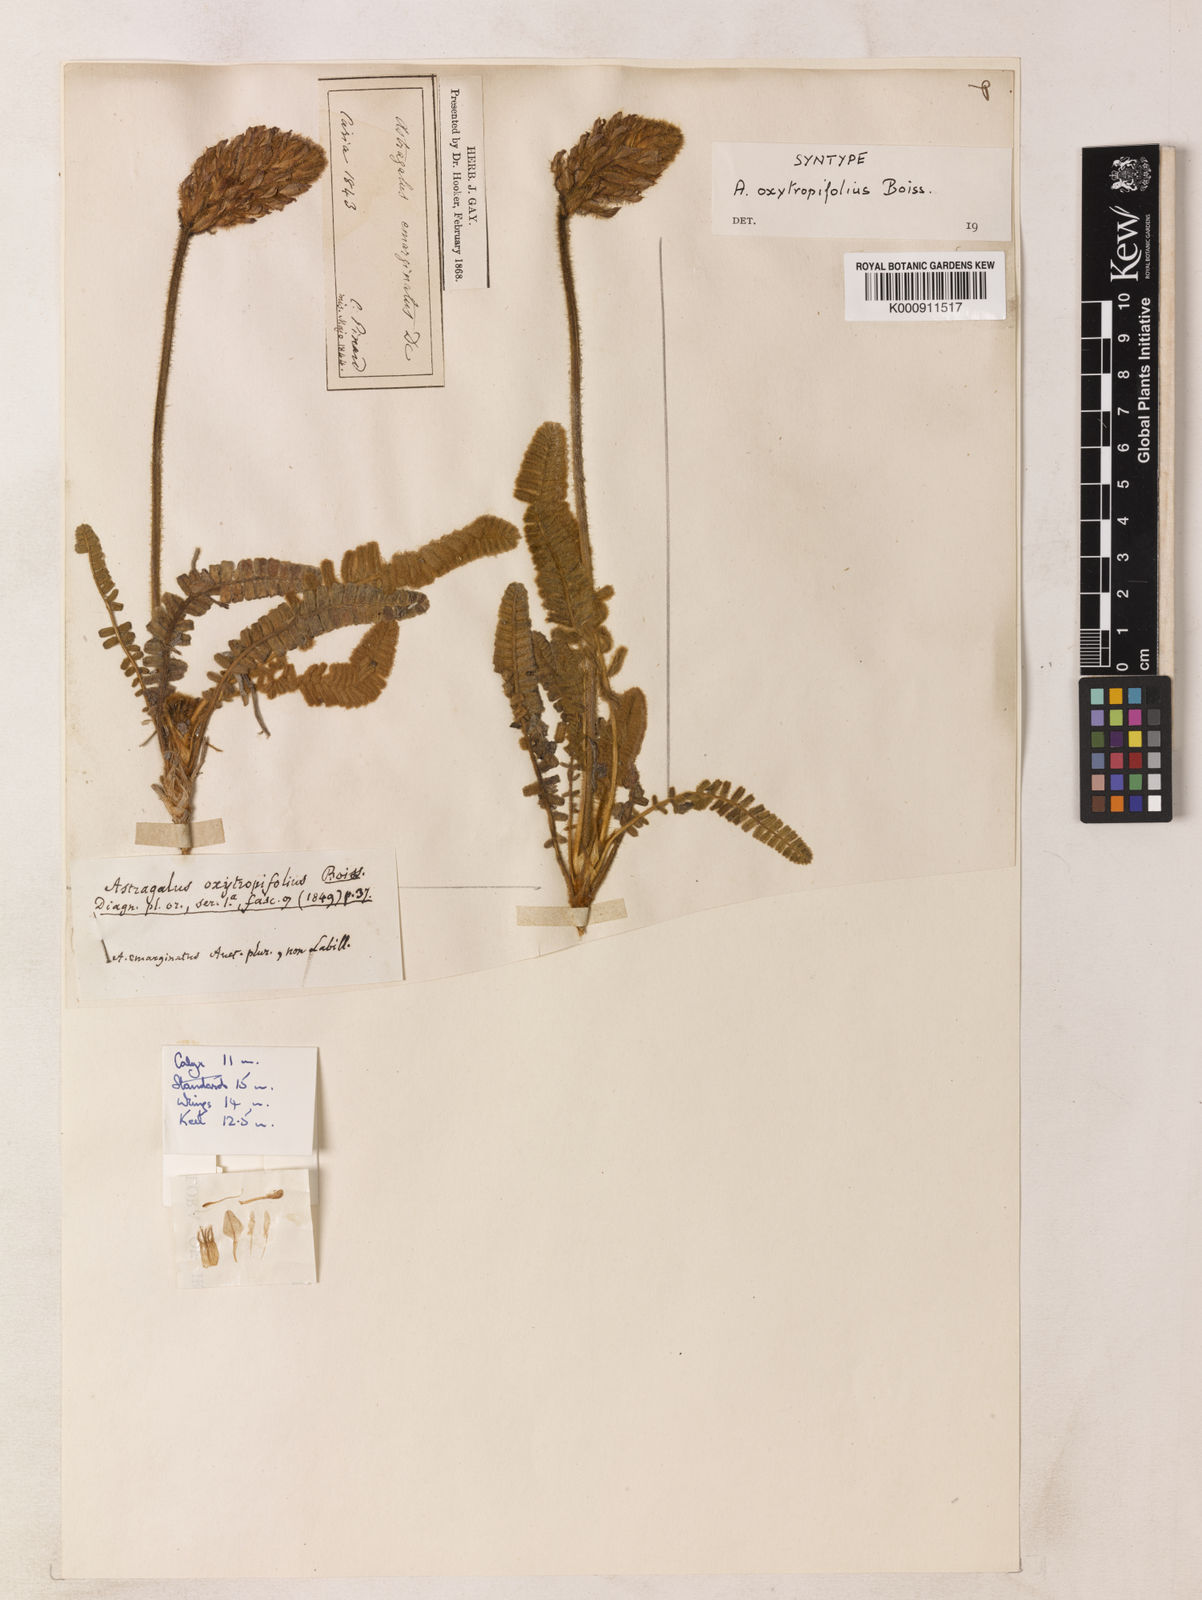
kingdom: Plantae
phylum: Tracheophyta
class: Magnoliopsida
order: Fabales
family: Fabaceae
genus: Astragalus
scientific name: Astragalus oxytropifolius
